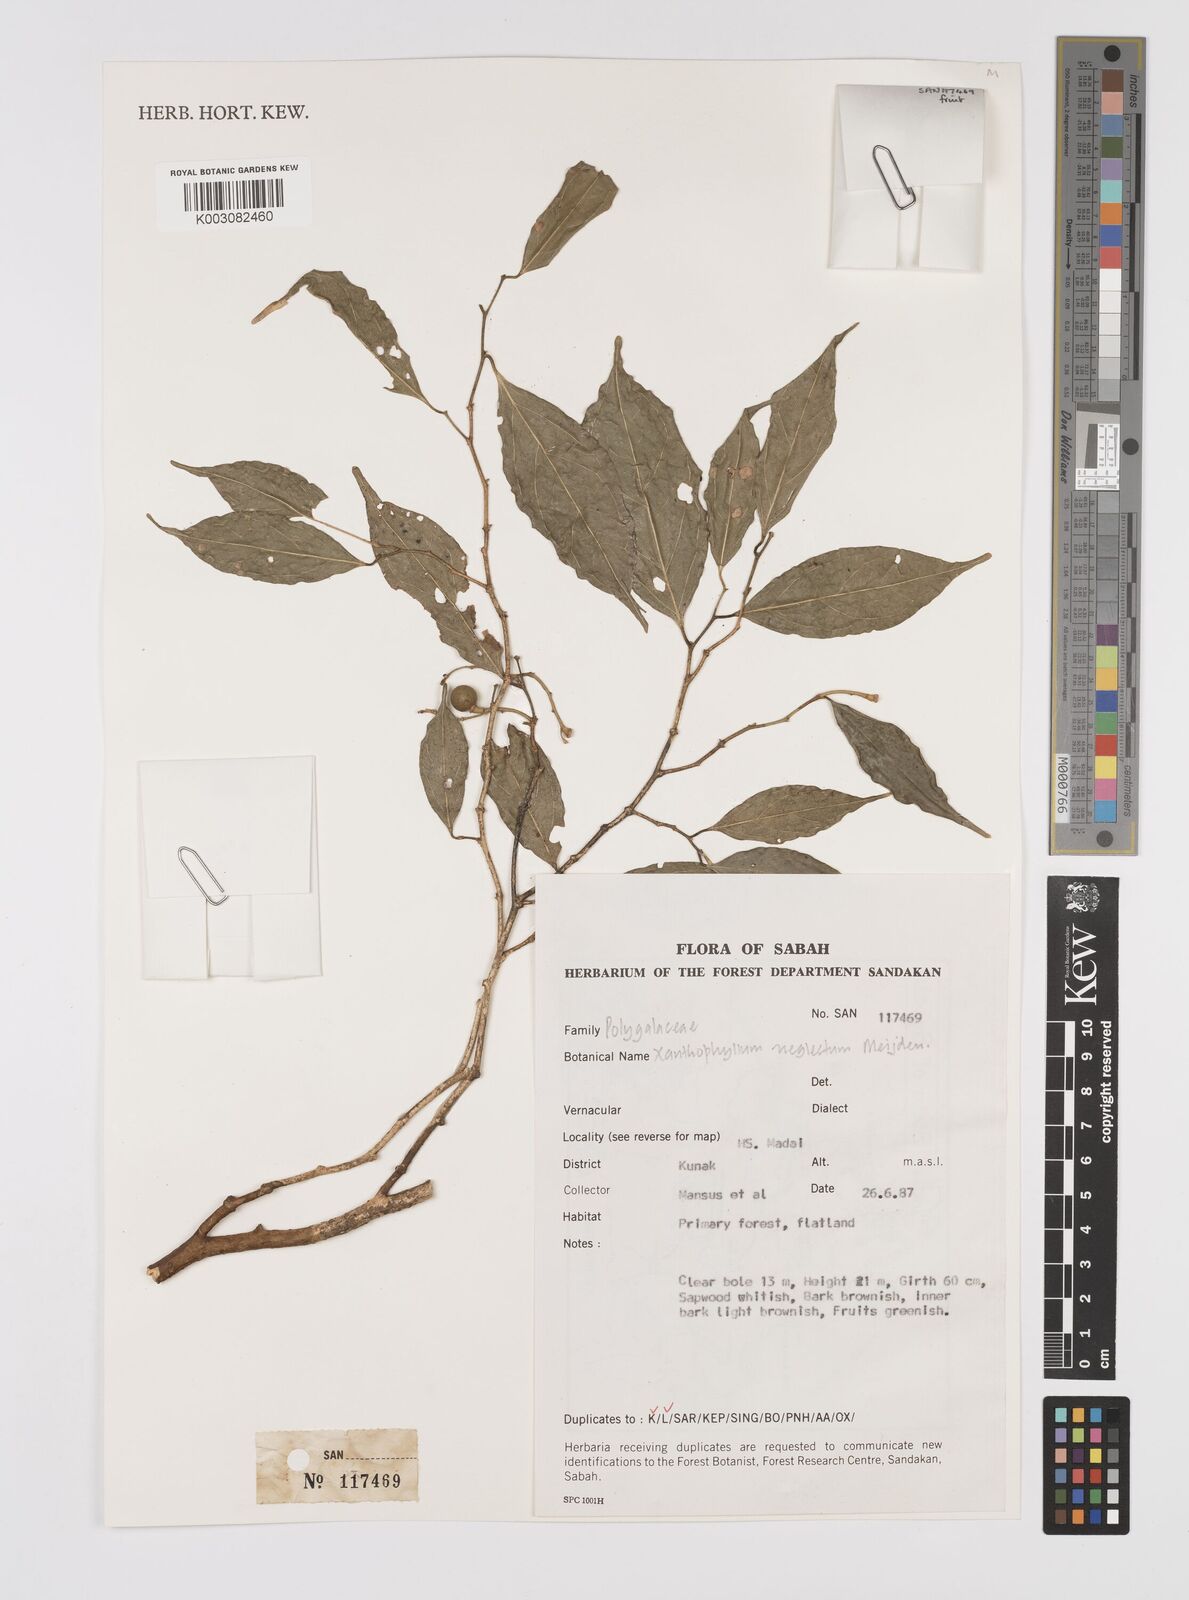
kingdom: Plantae
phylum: Tracheophyta
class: Magnoliopsida
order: Fabales
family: Polygalaceae
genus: Xanthophyllum
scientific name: Xanthophyllum neglectum
